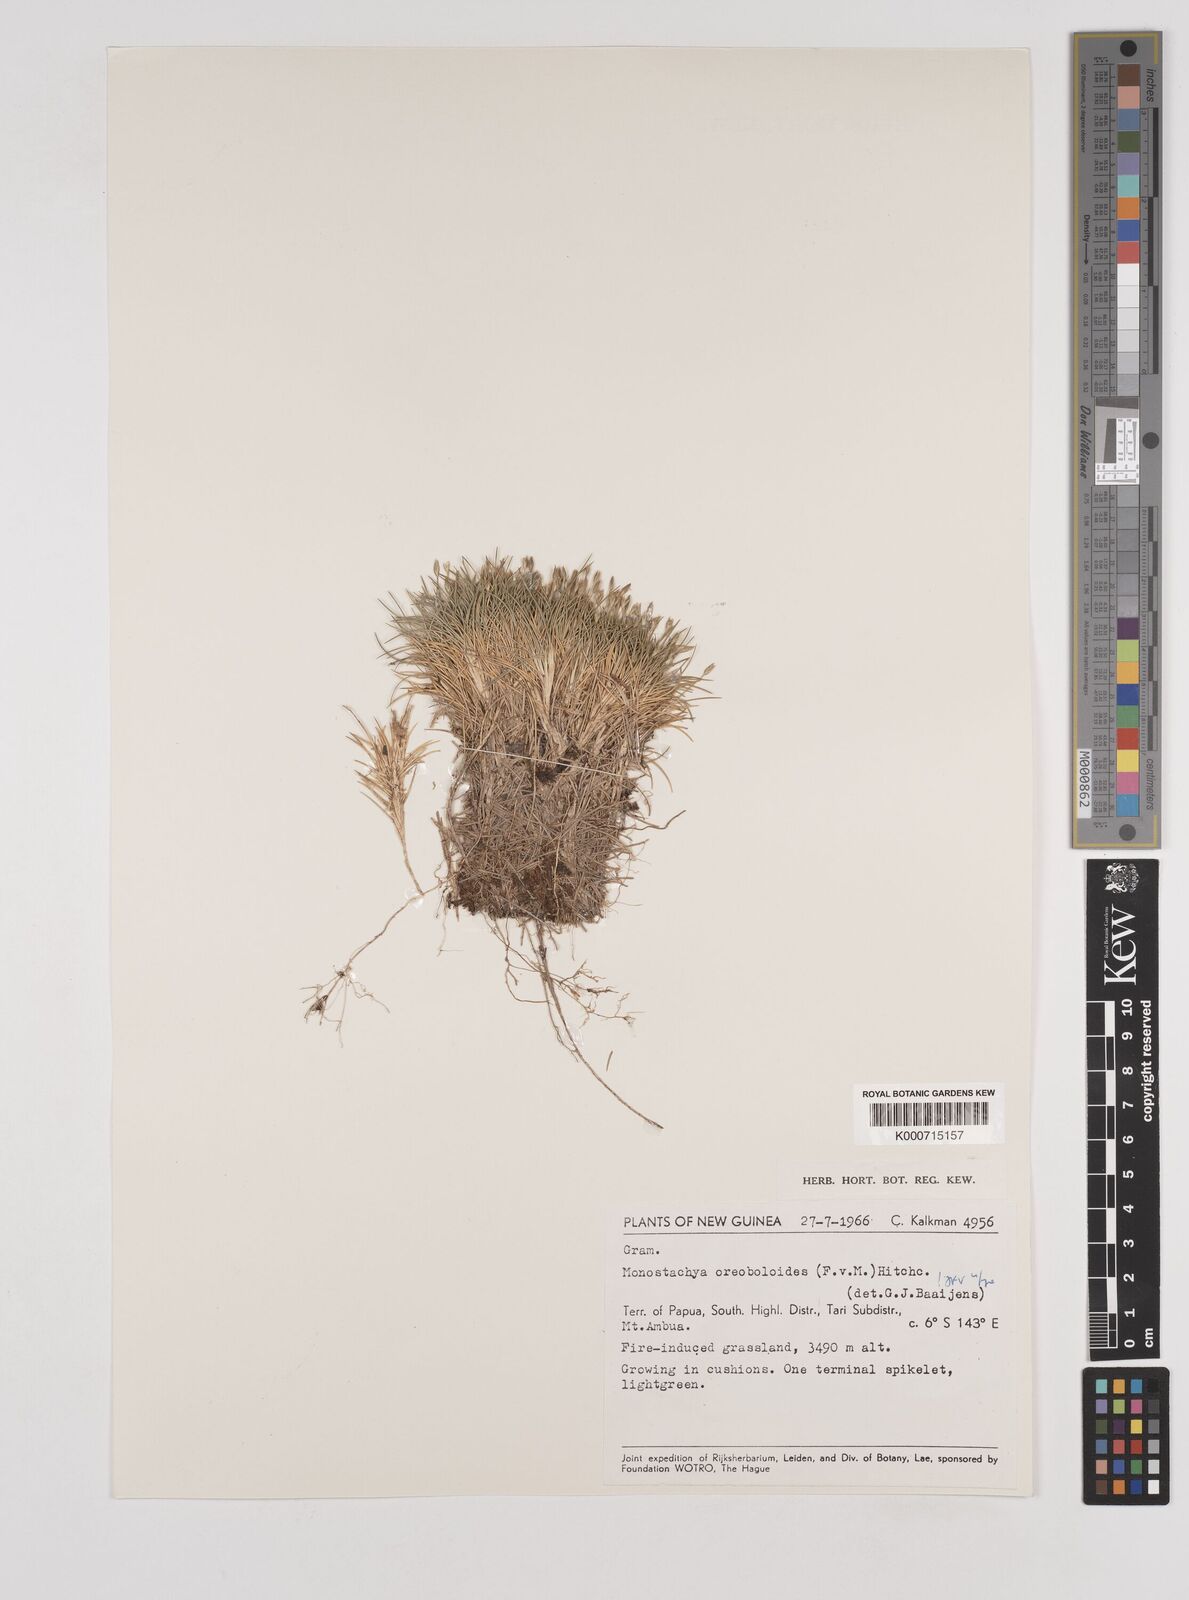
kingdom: Plantae
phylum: Tracheophyta
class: Liliopsida
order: Poales
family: Poaceae
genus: Rytidosperma
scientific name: Rytidosperma oreoboloides
